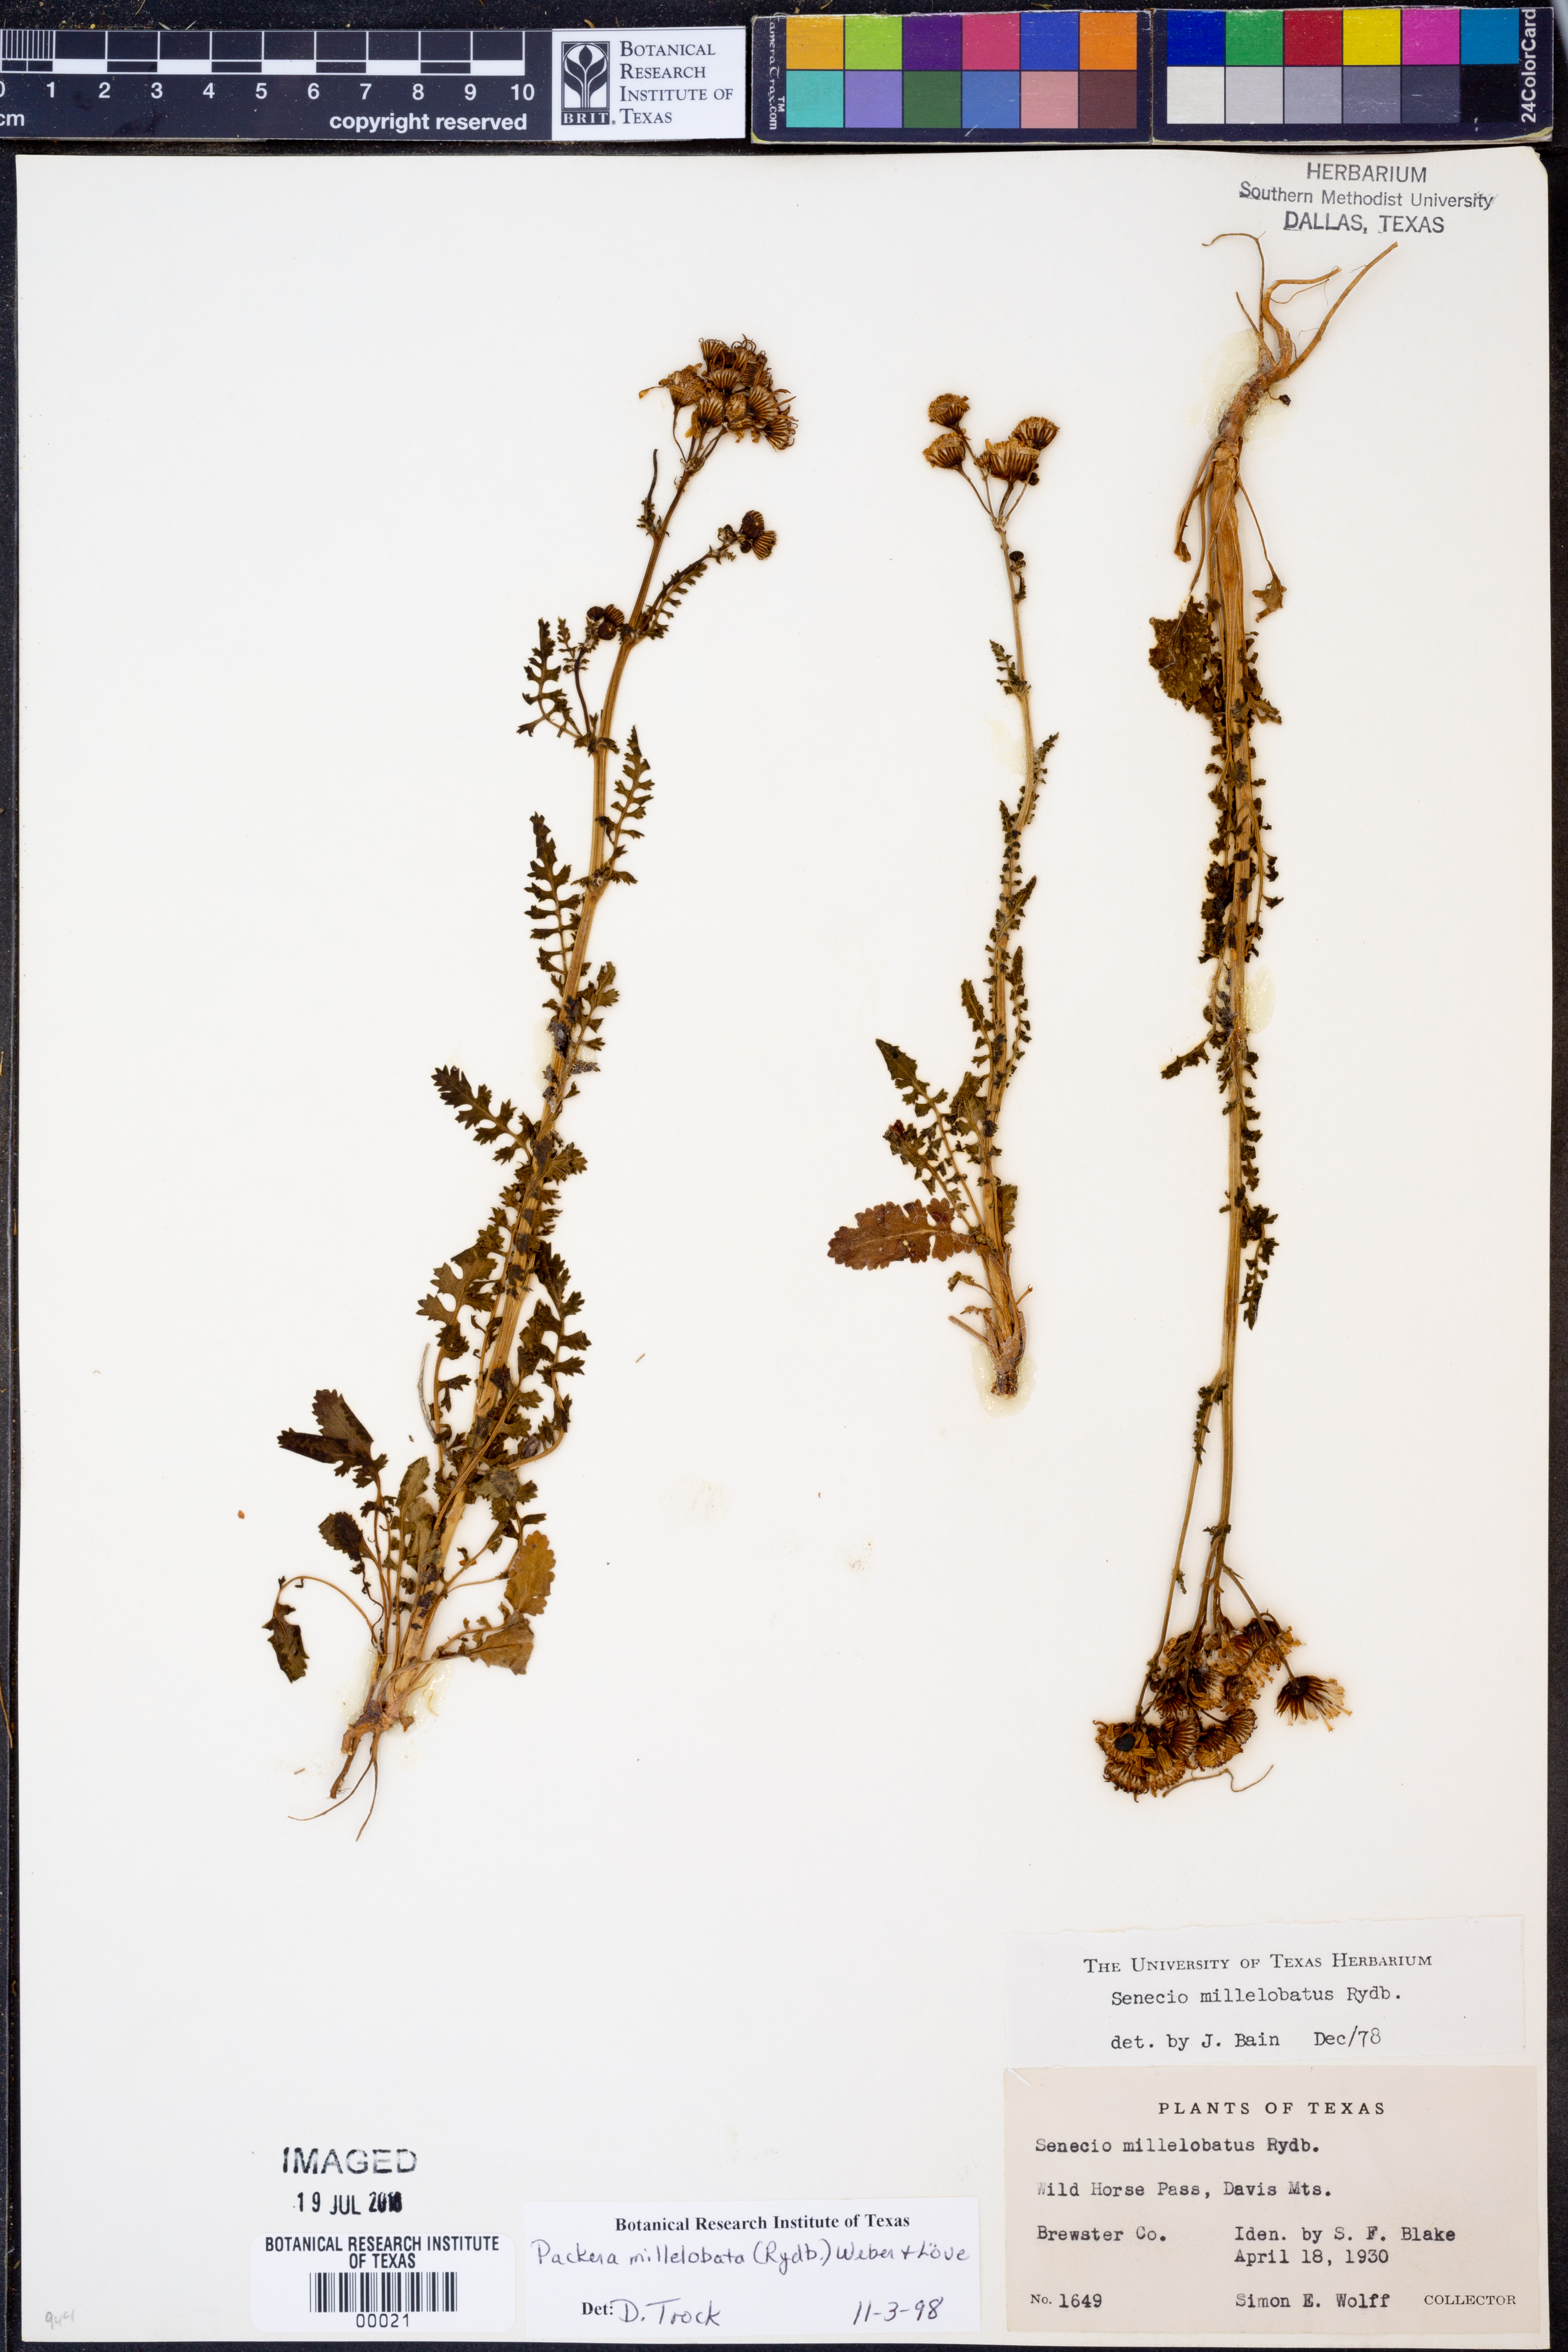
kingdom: Plantae
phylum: Tracheophyta
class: Magnoliopsida
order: Asterales
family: Asteraceae
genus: Packera
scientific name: Packera millelobata
